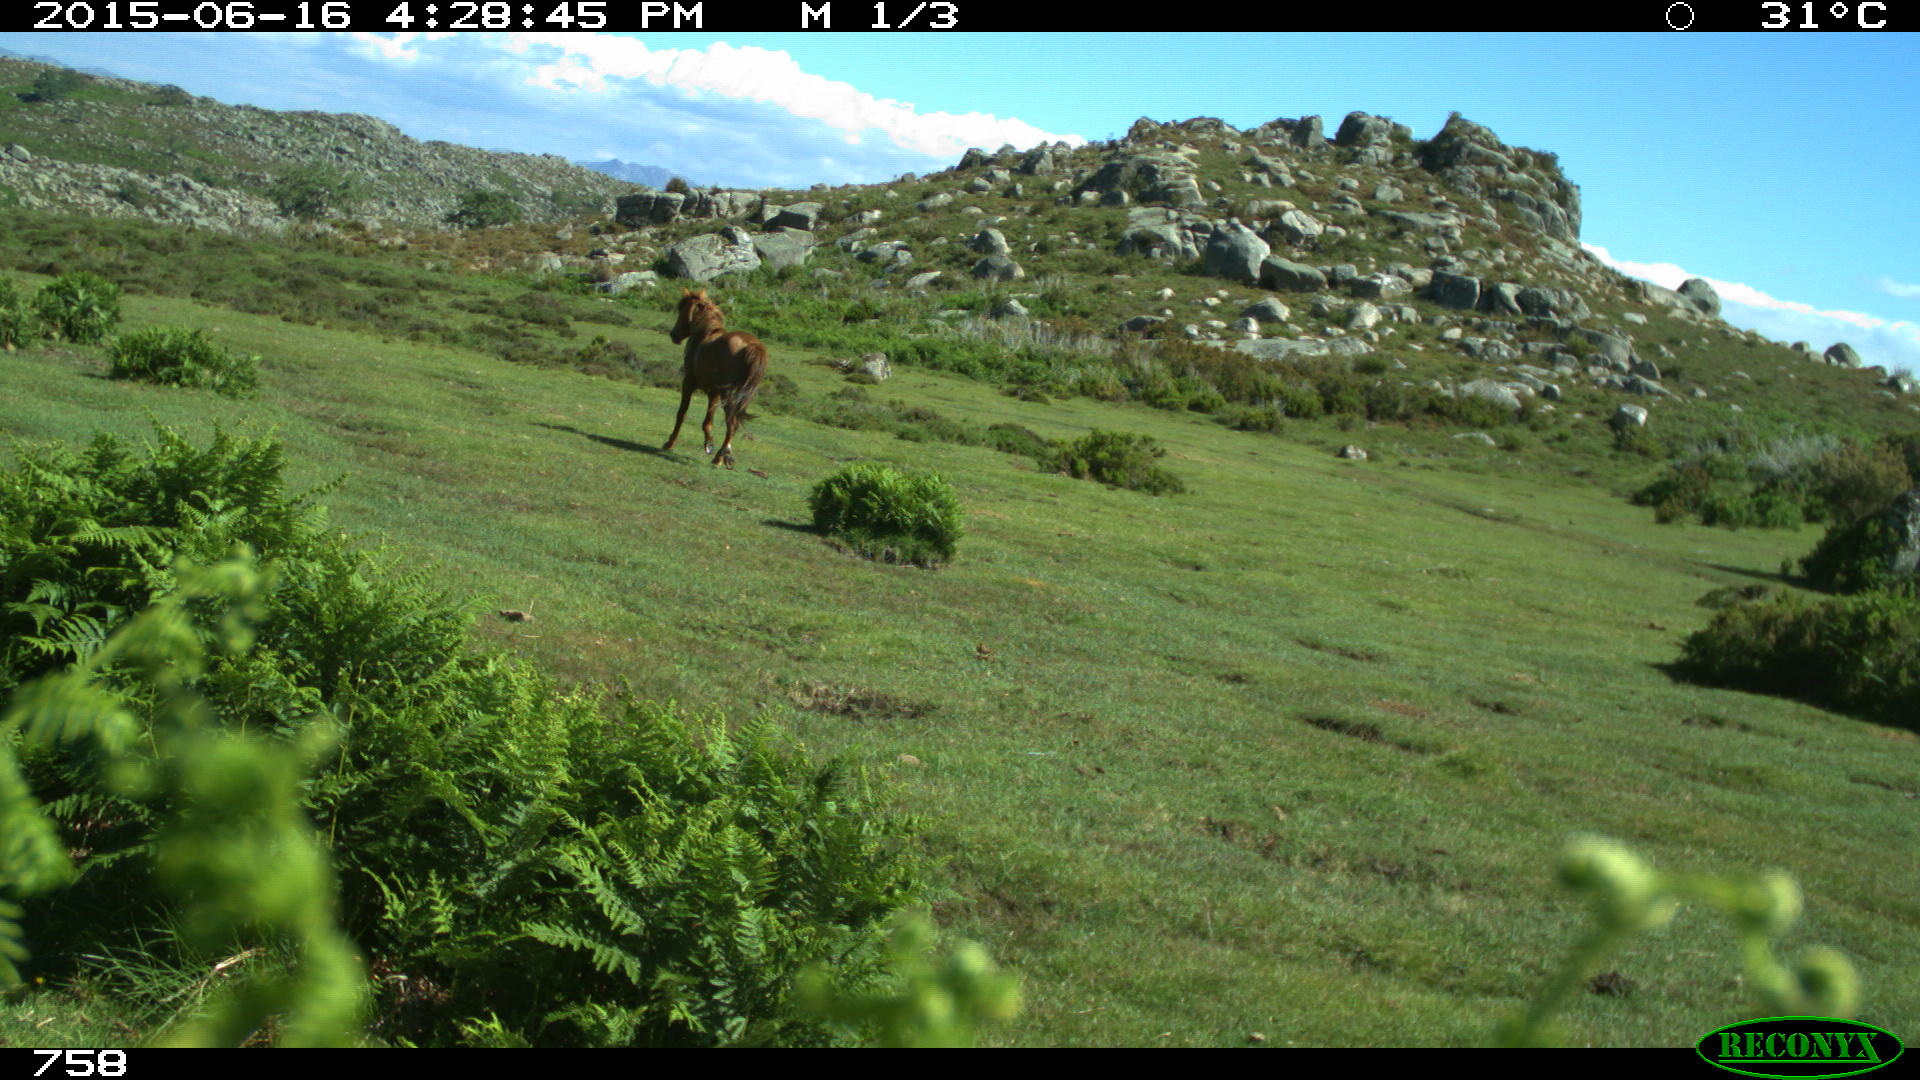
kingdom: Animalia
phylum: Chordata
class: Mammalia
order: Artiodactyla
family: Bovidae
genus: Bos
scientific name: Bos taurus
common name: Domesticated cattle
